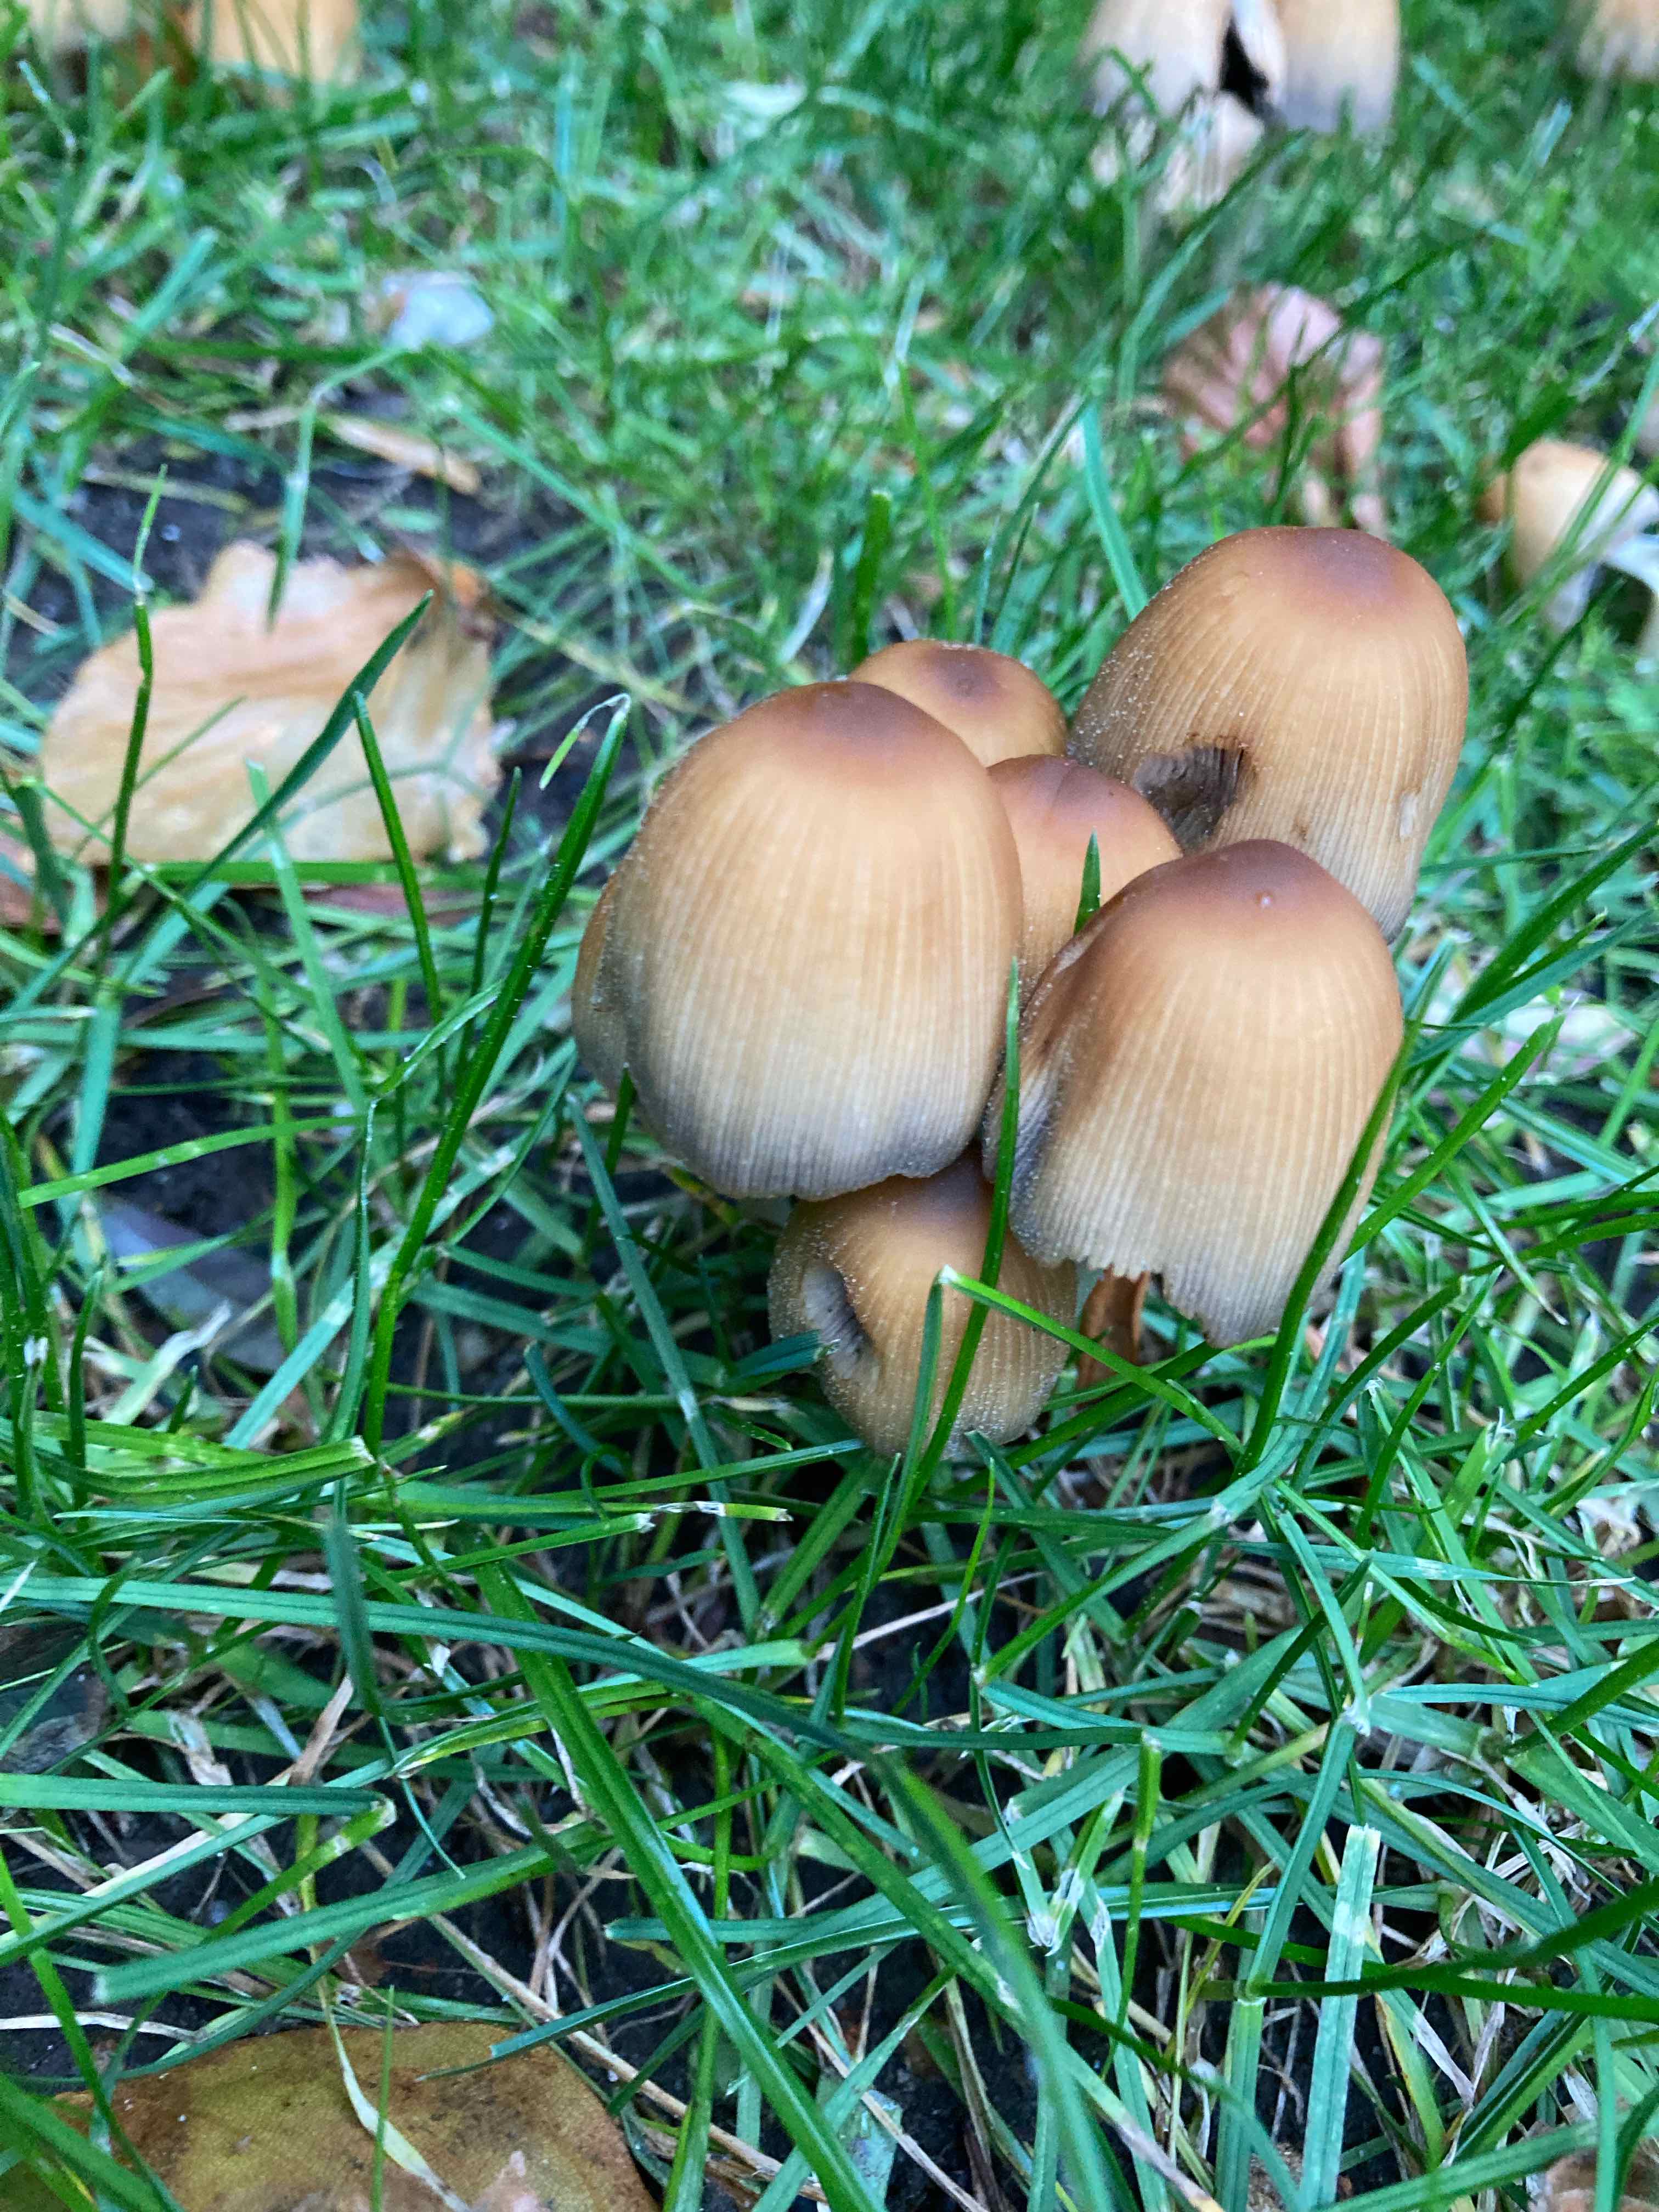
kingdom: Fungi
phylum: Basidiomycota
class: Agaricomycetes
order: Agaricales
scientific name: Agaricales
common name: champignonordenen
